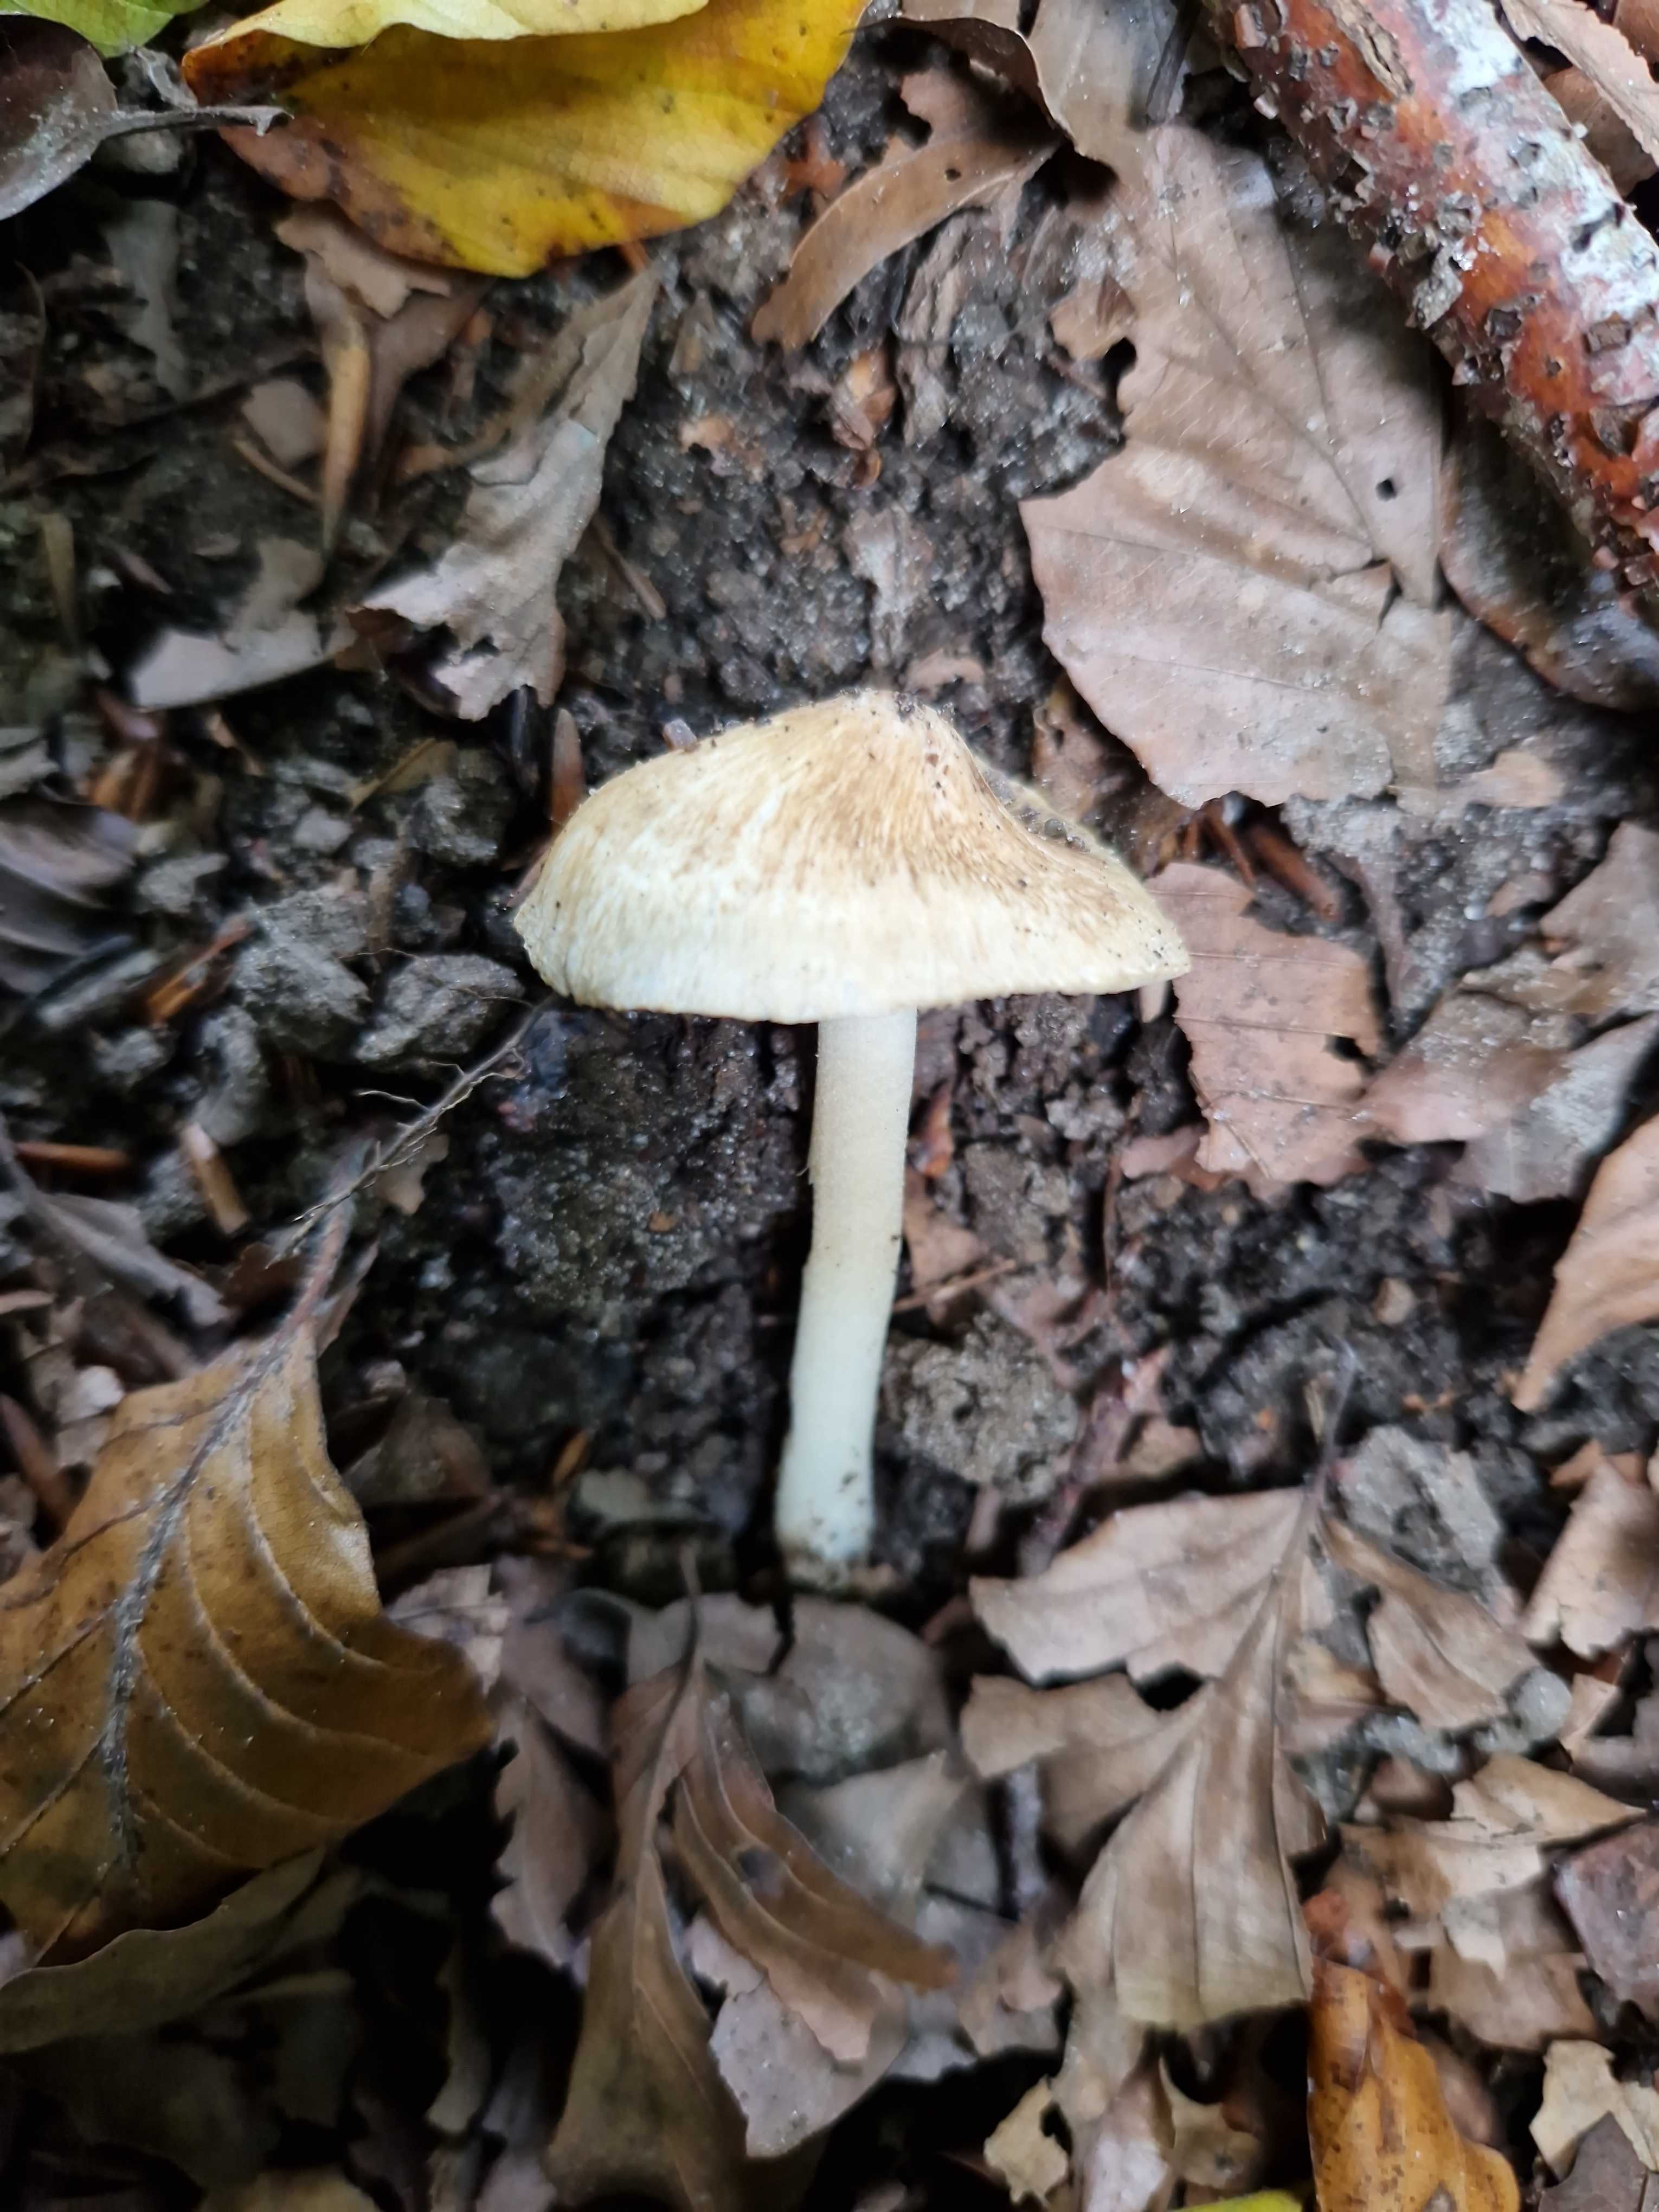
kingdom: Fungi
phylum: Basidiomycota
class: Agaricomycetes
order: Agaricales
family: Inocybaceae
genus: Inocybe
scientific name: Inocybe margaritispora
